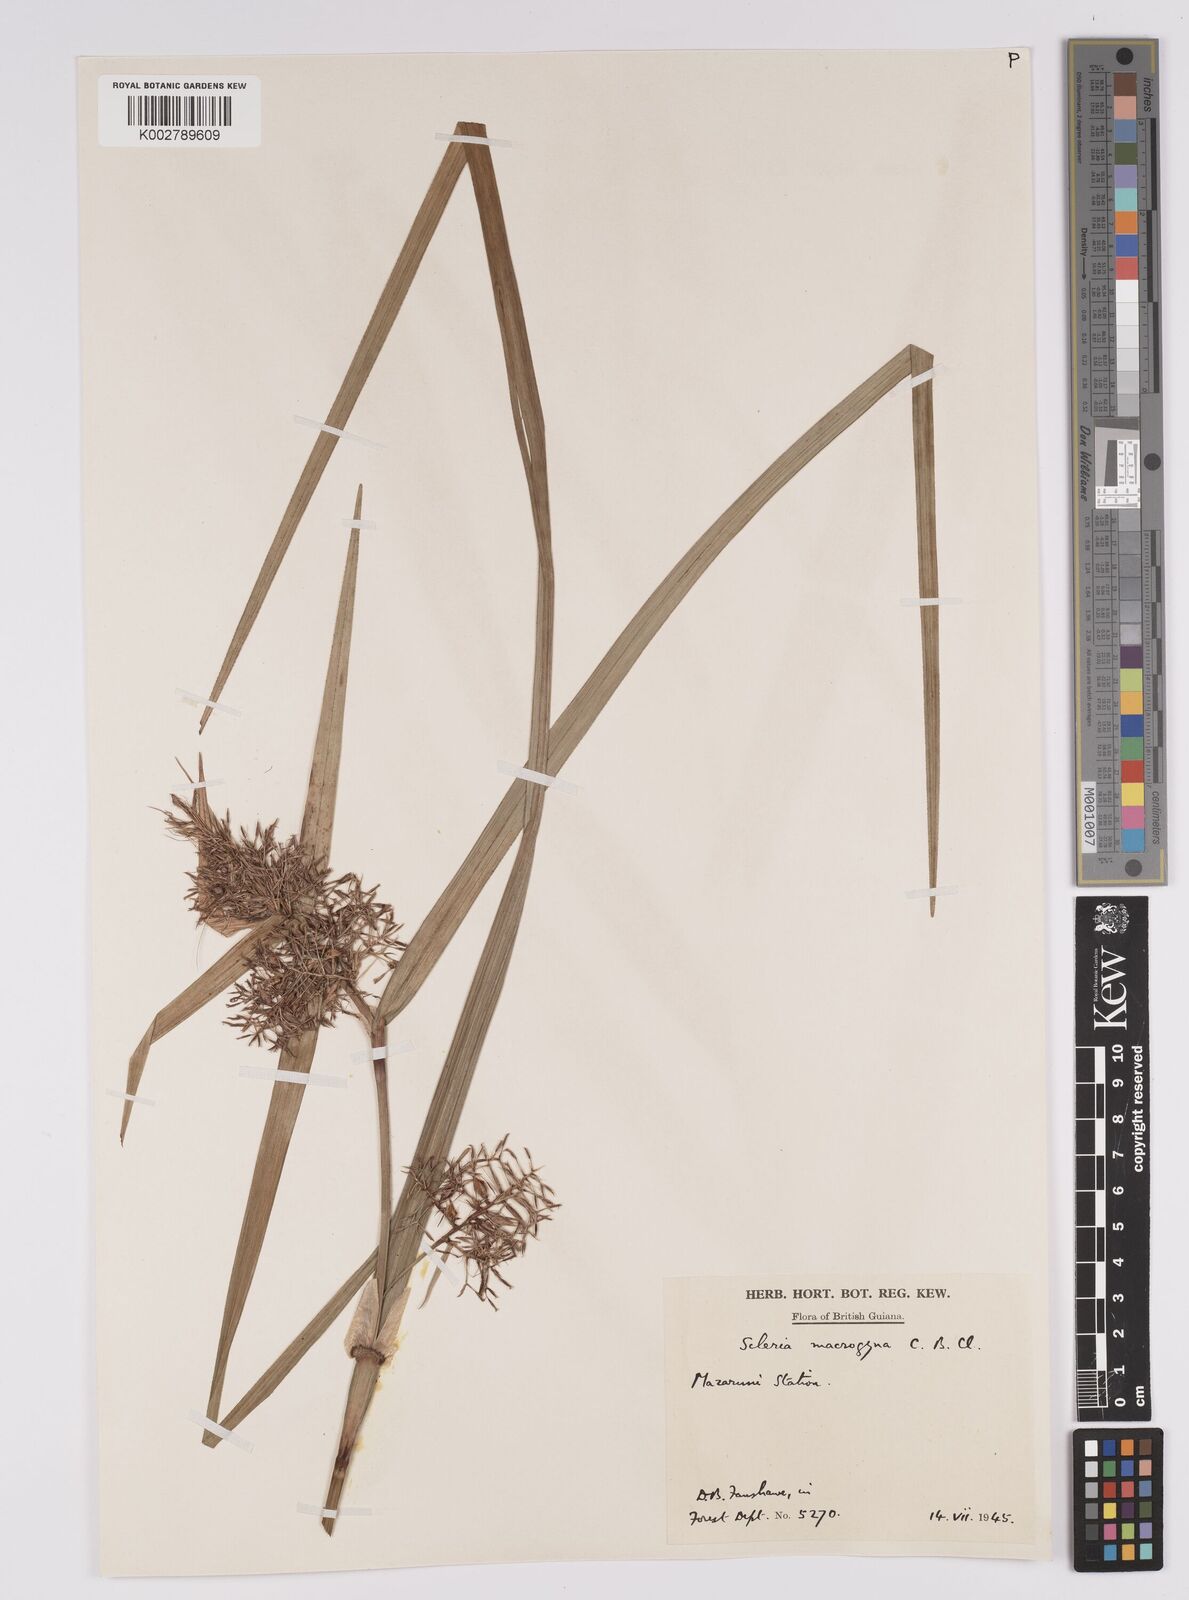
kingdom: Plantae
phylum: Tracheophyta
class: Liliopsida
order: Poales
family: Cyperaceae
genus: Scleria
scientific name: Scleria macrogyne
